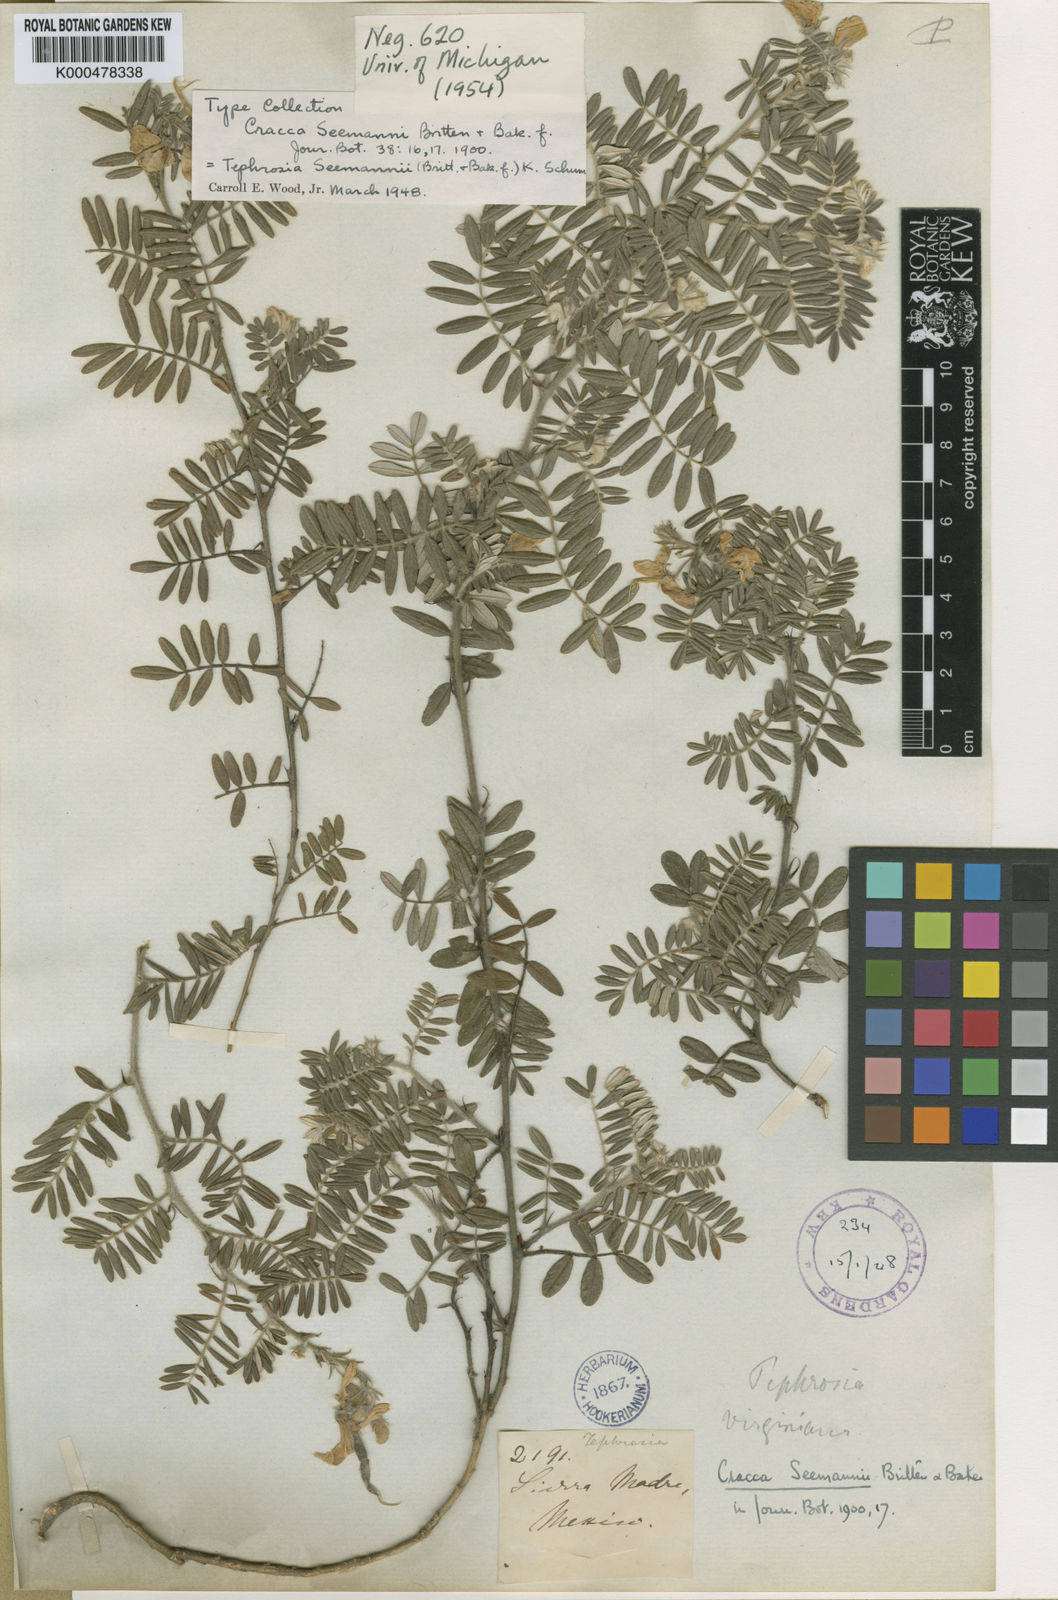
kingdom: Plantae
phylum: Tracheophyta
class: Magnoliopsida
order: Fabales
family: Fabaceae
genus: Tephrosia
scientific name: Tephrosia seemannii
